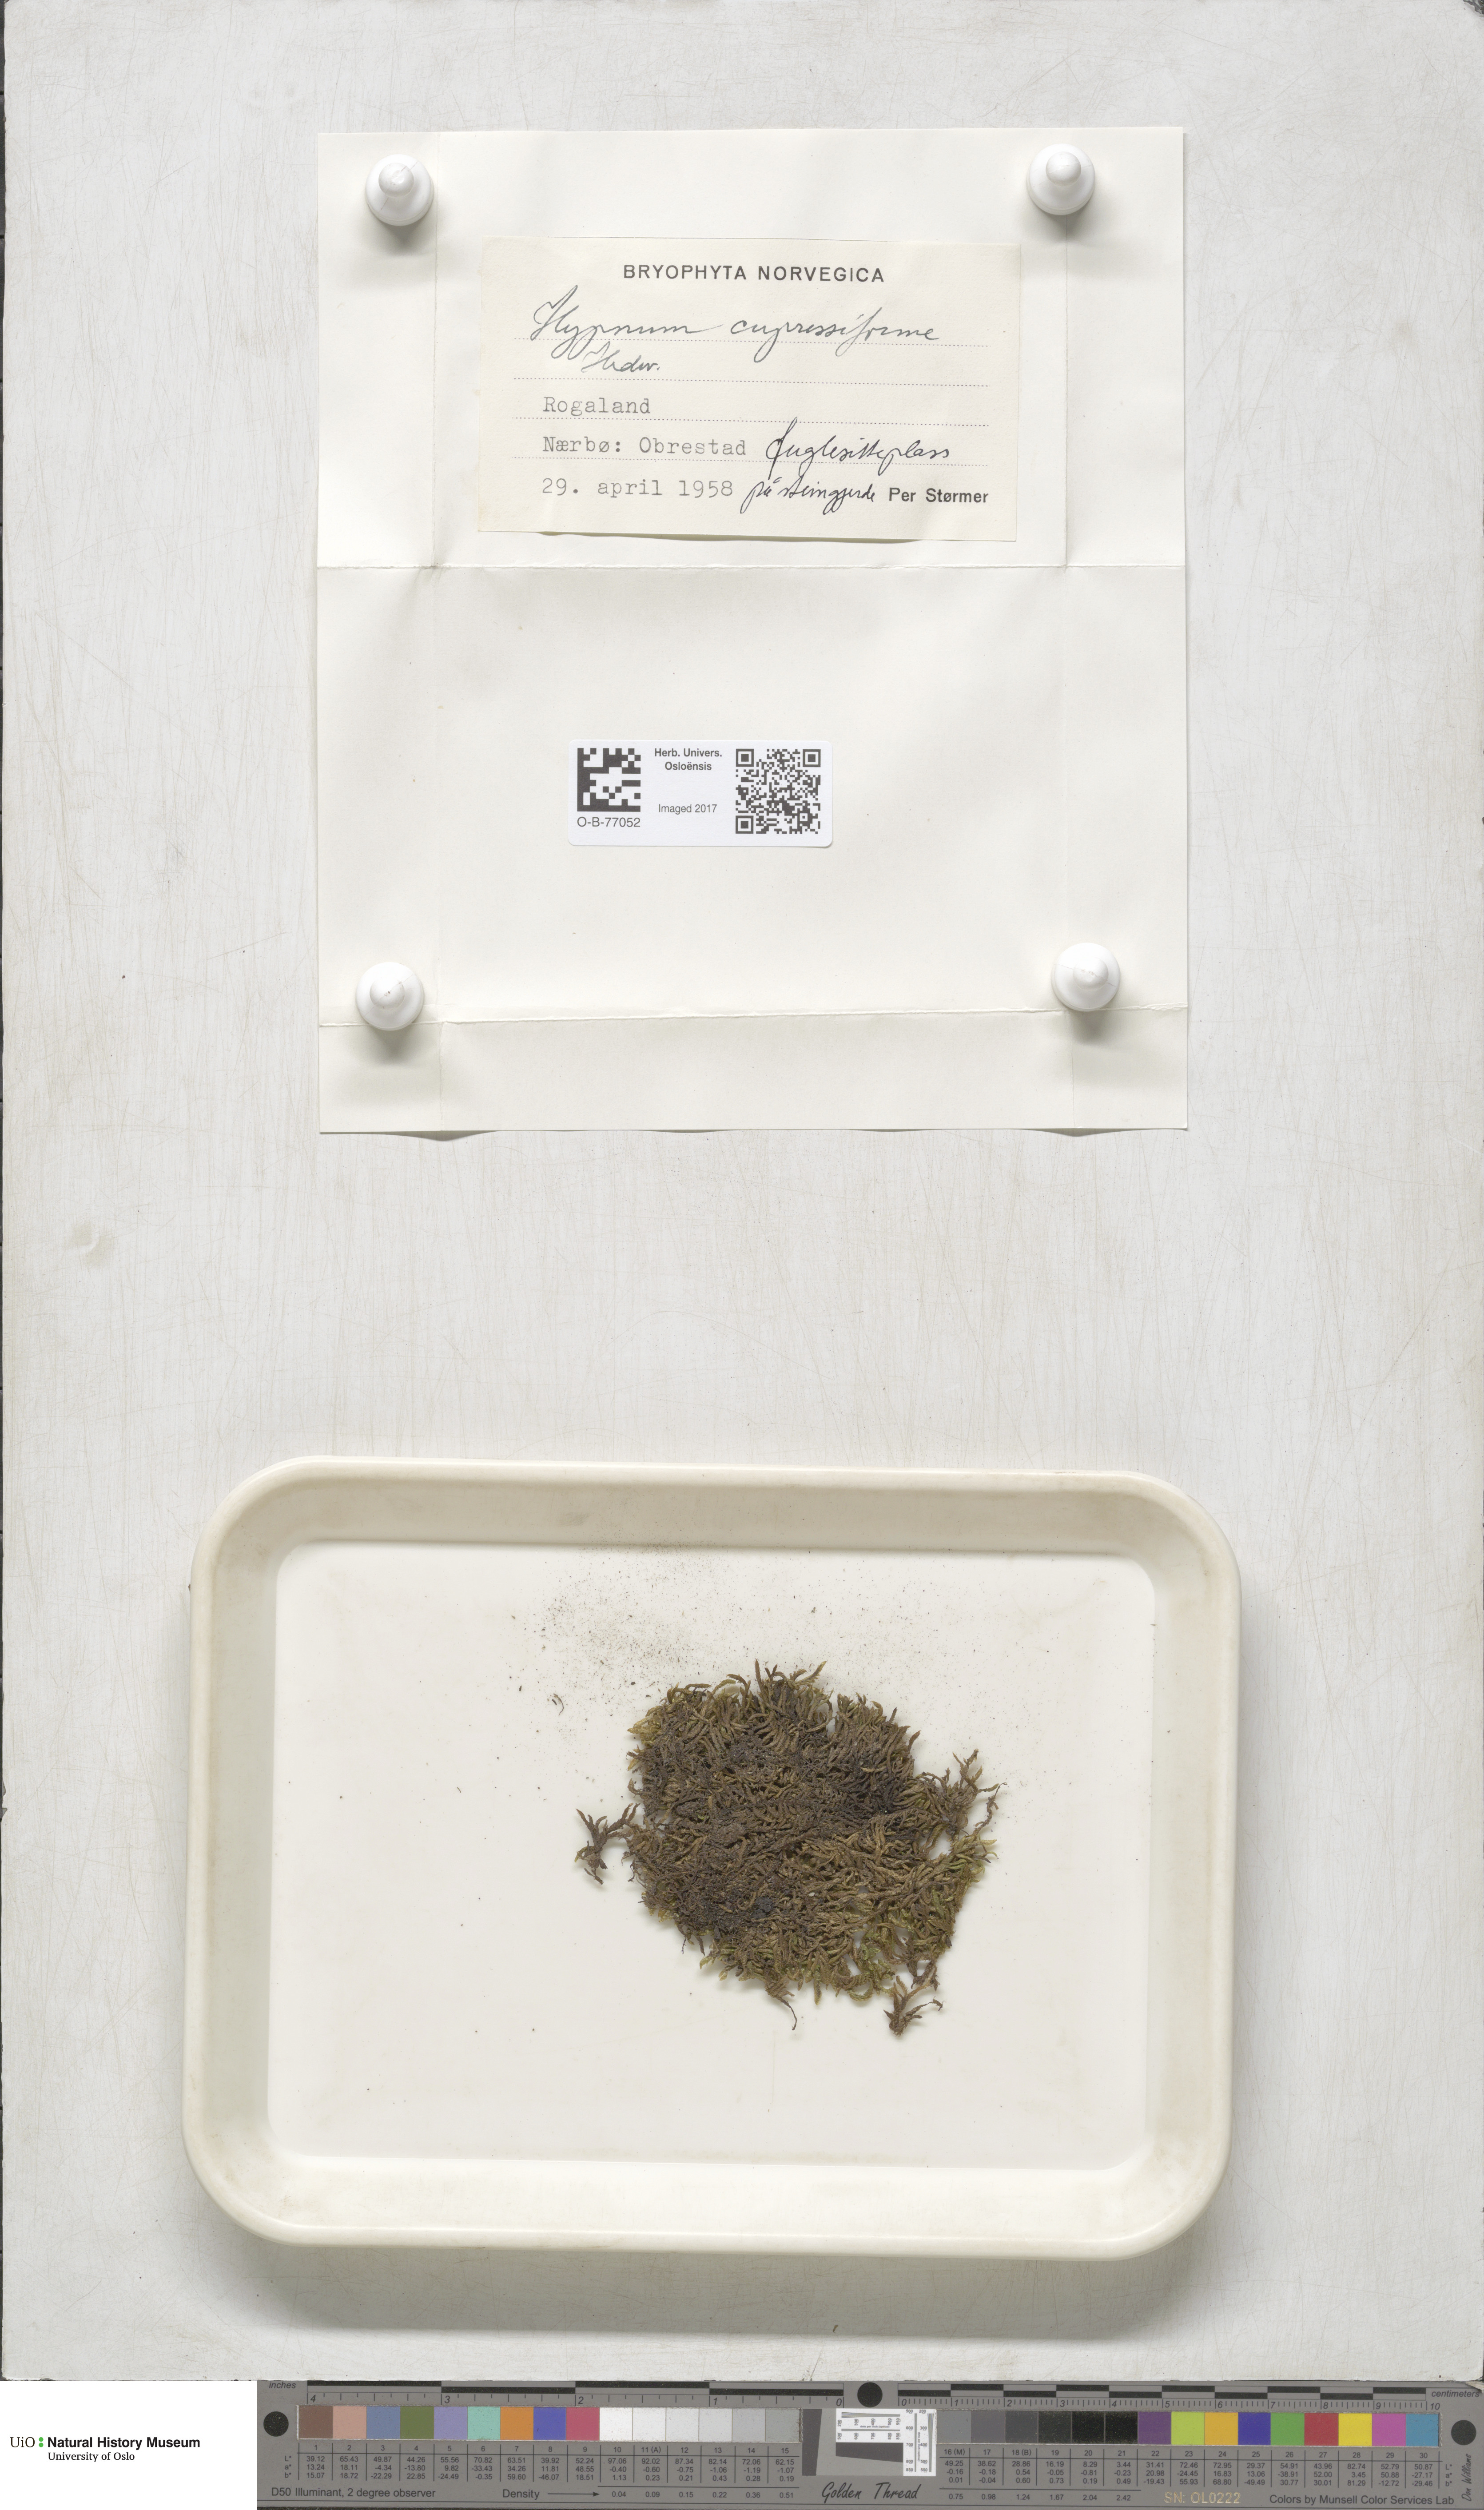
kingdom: Plantae
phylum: Bryophyta
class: Bryopsida
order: Hypnales
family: Hypnaceae
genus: Hypnum
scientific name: Hypnum cupressiforme
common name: Cypress-leaved plait-moss
